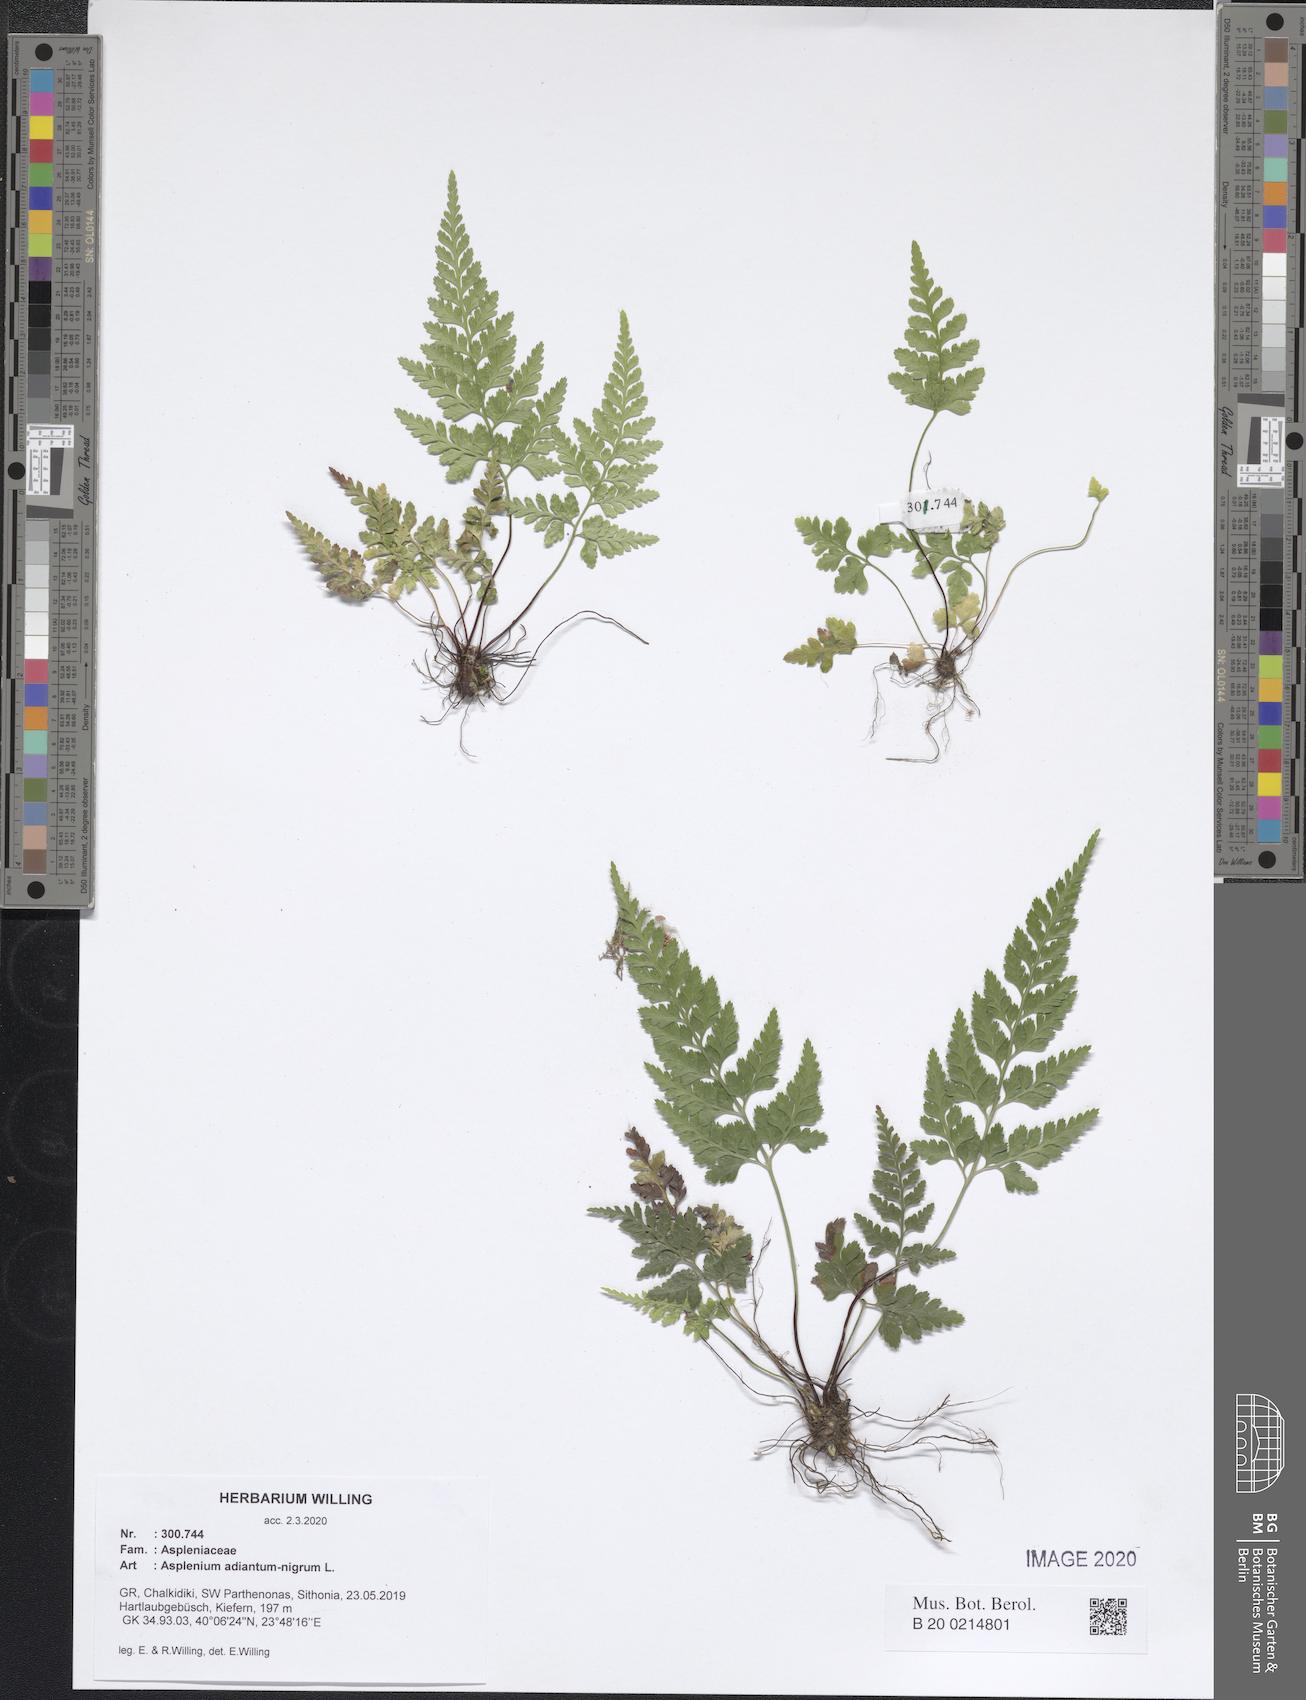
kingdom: Plantae
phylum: Tracheophyta
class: Polypodiopsida
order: Polypodiales
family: Aspleniaceae
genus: Asplenium
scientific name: Asplenium adiantum-nigrum
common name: Black spleenwort
